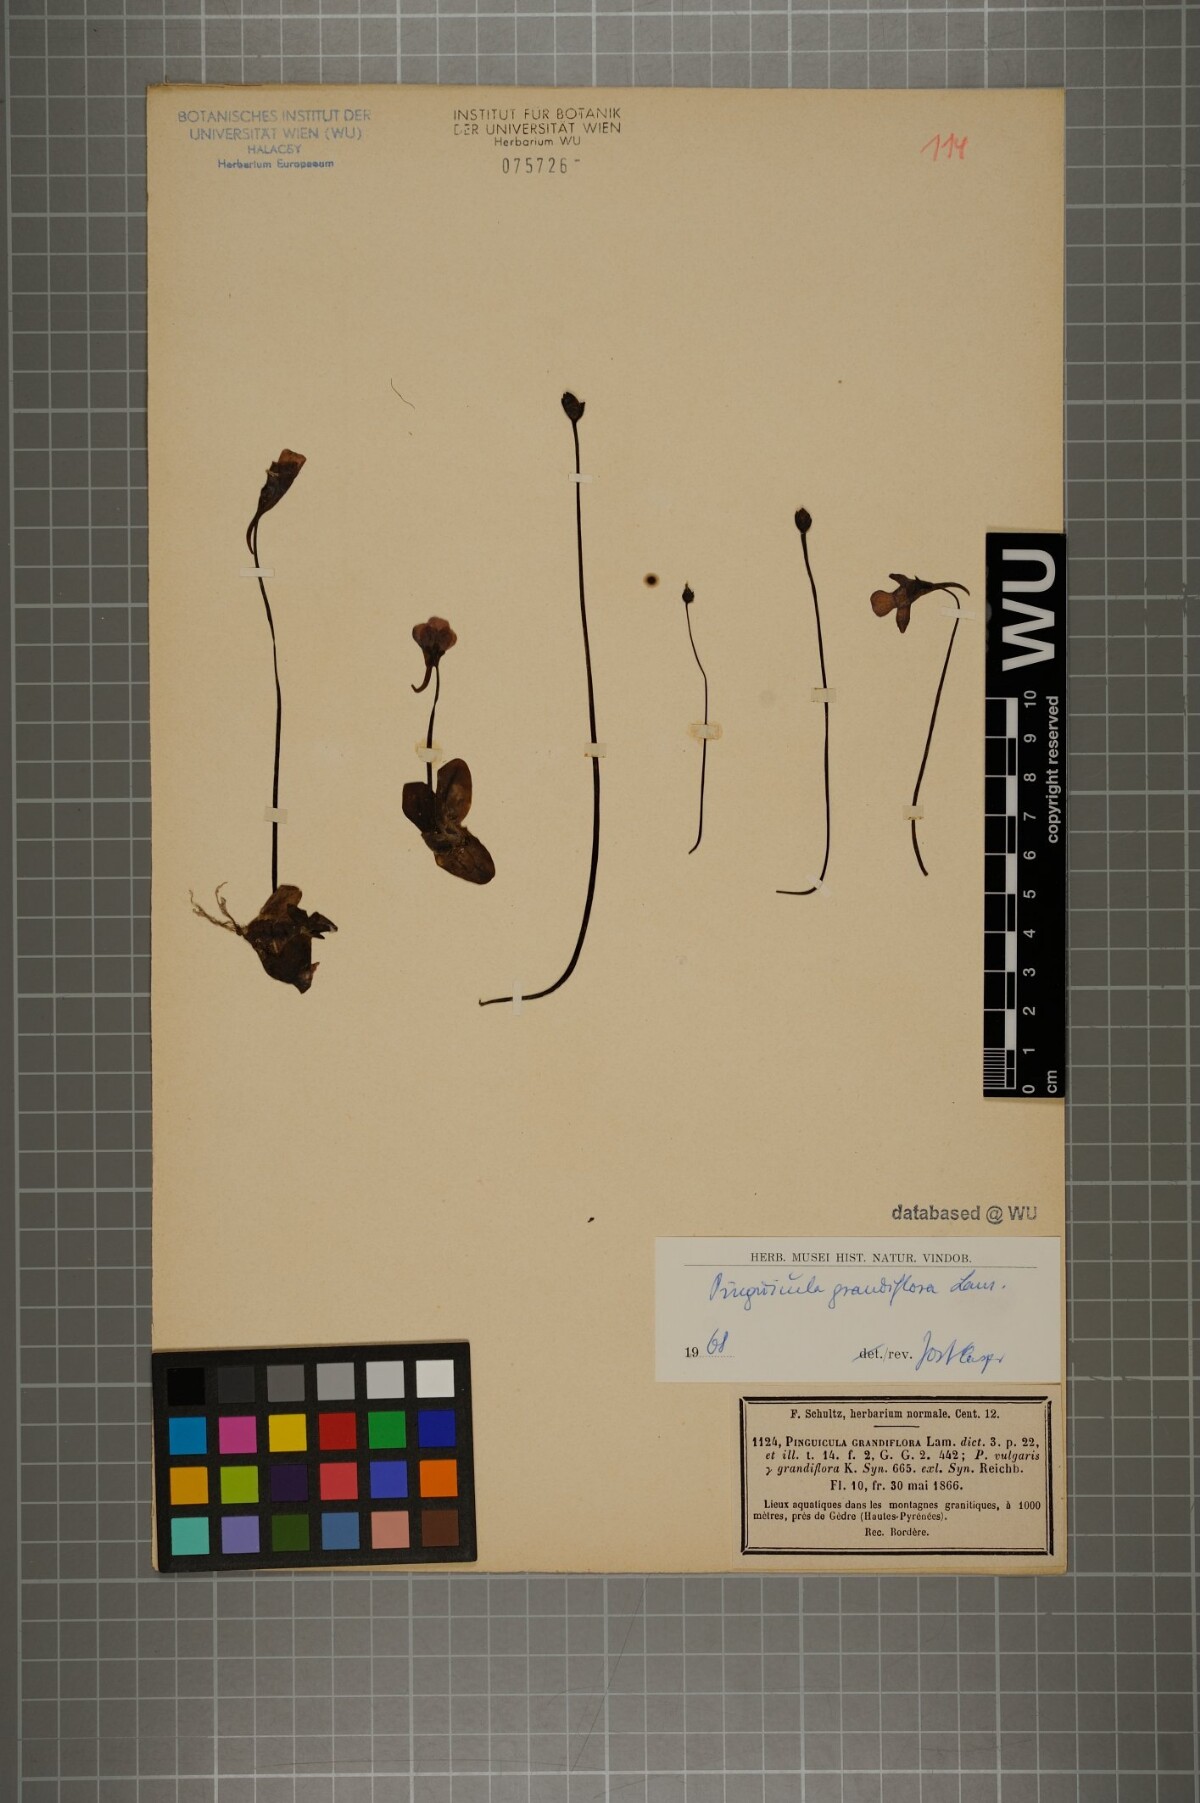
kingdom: Plantae
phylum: Tracheophyta
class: Magnoliopsida
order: Lamiales
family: Lentibulariaceae
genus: Pinguicula
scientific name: Pinguicula grandiflora
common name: Large-flowered butterwort
